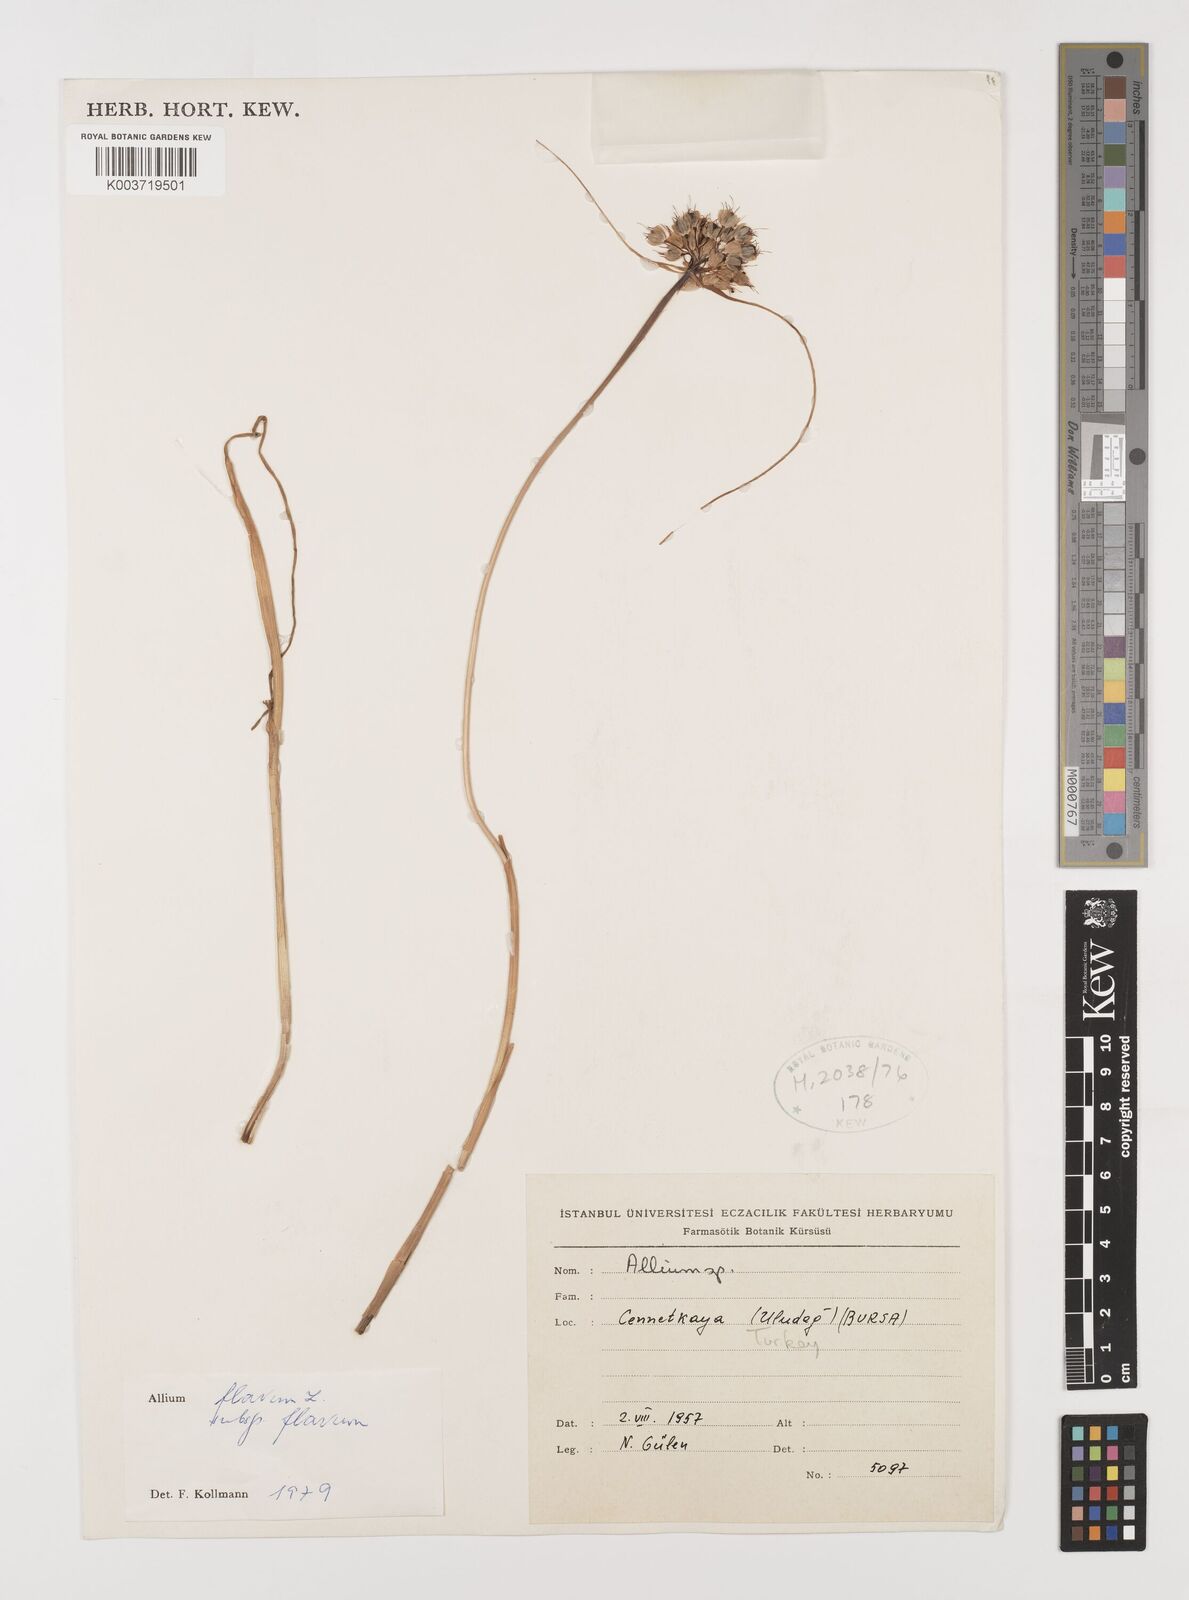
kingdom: Plantae
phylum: Tracheophyta
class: Liliopsida
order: Asparagales
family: Amaryllidaceae
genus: Allium
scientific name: Allium flavum
